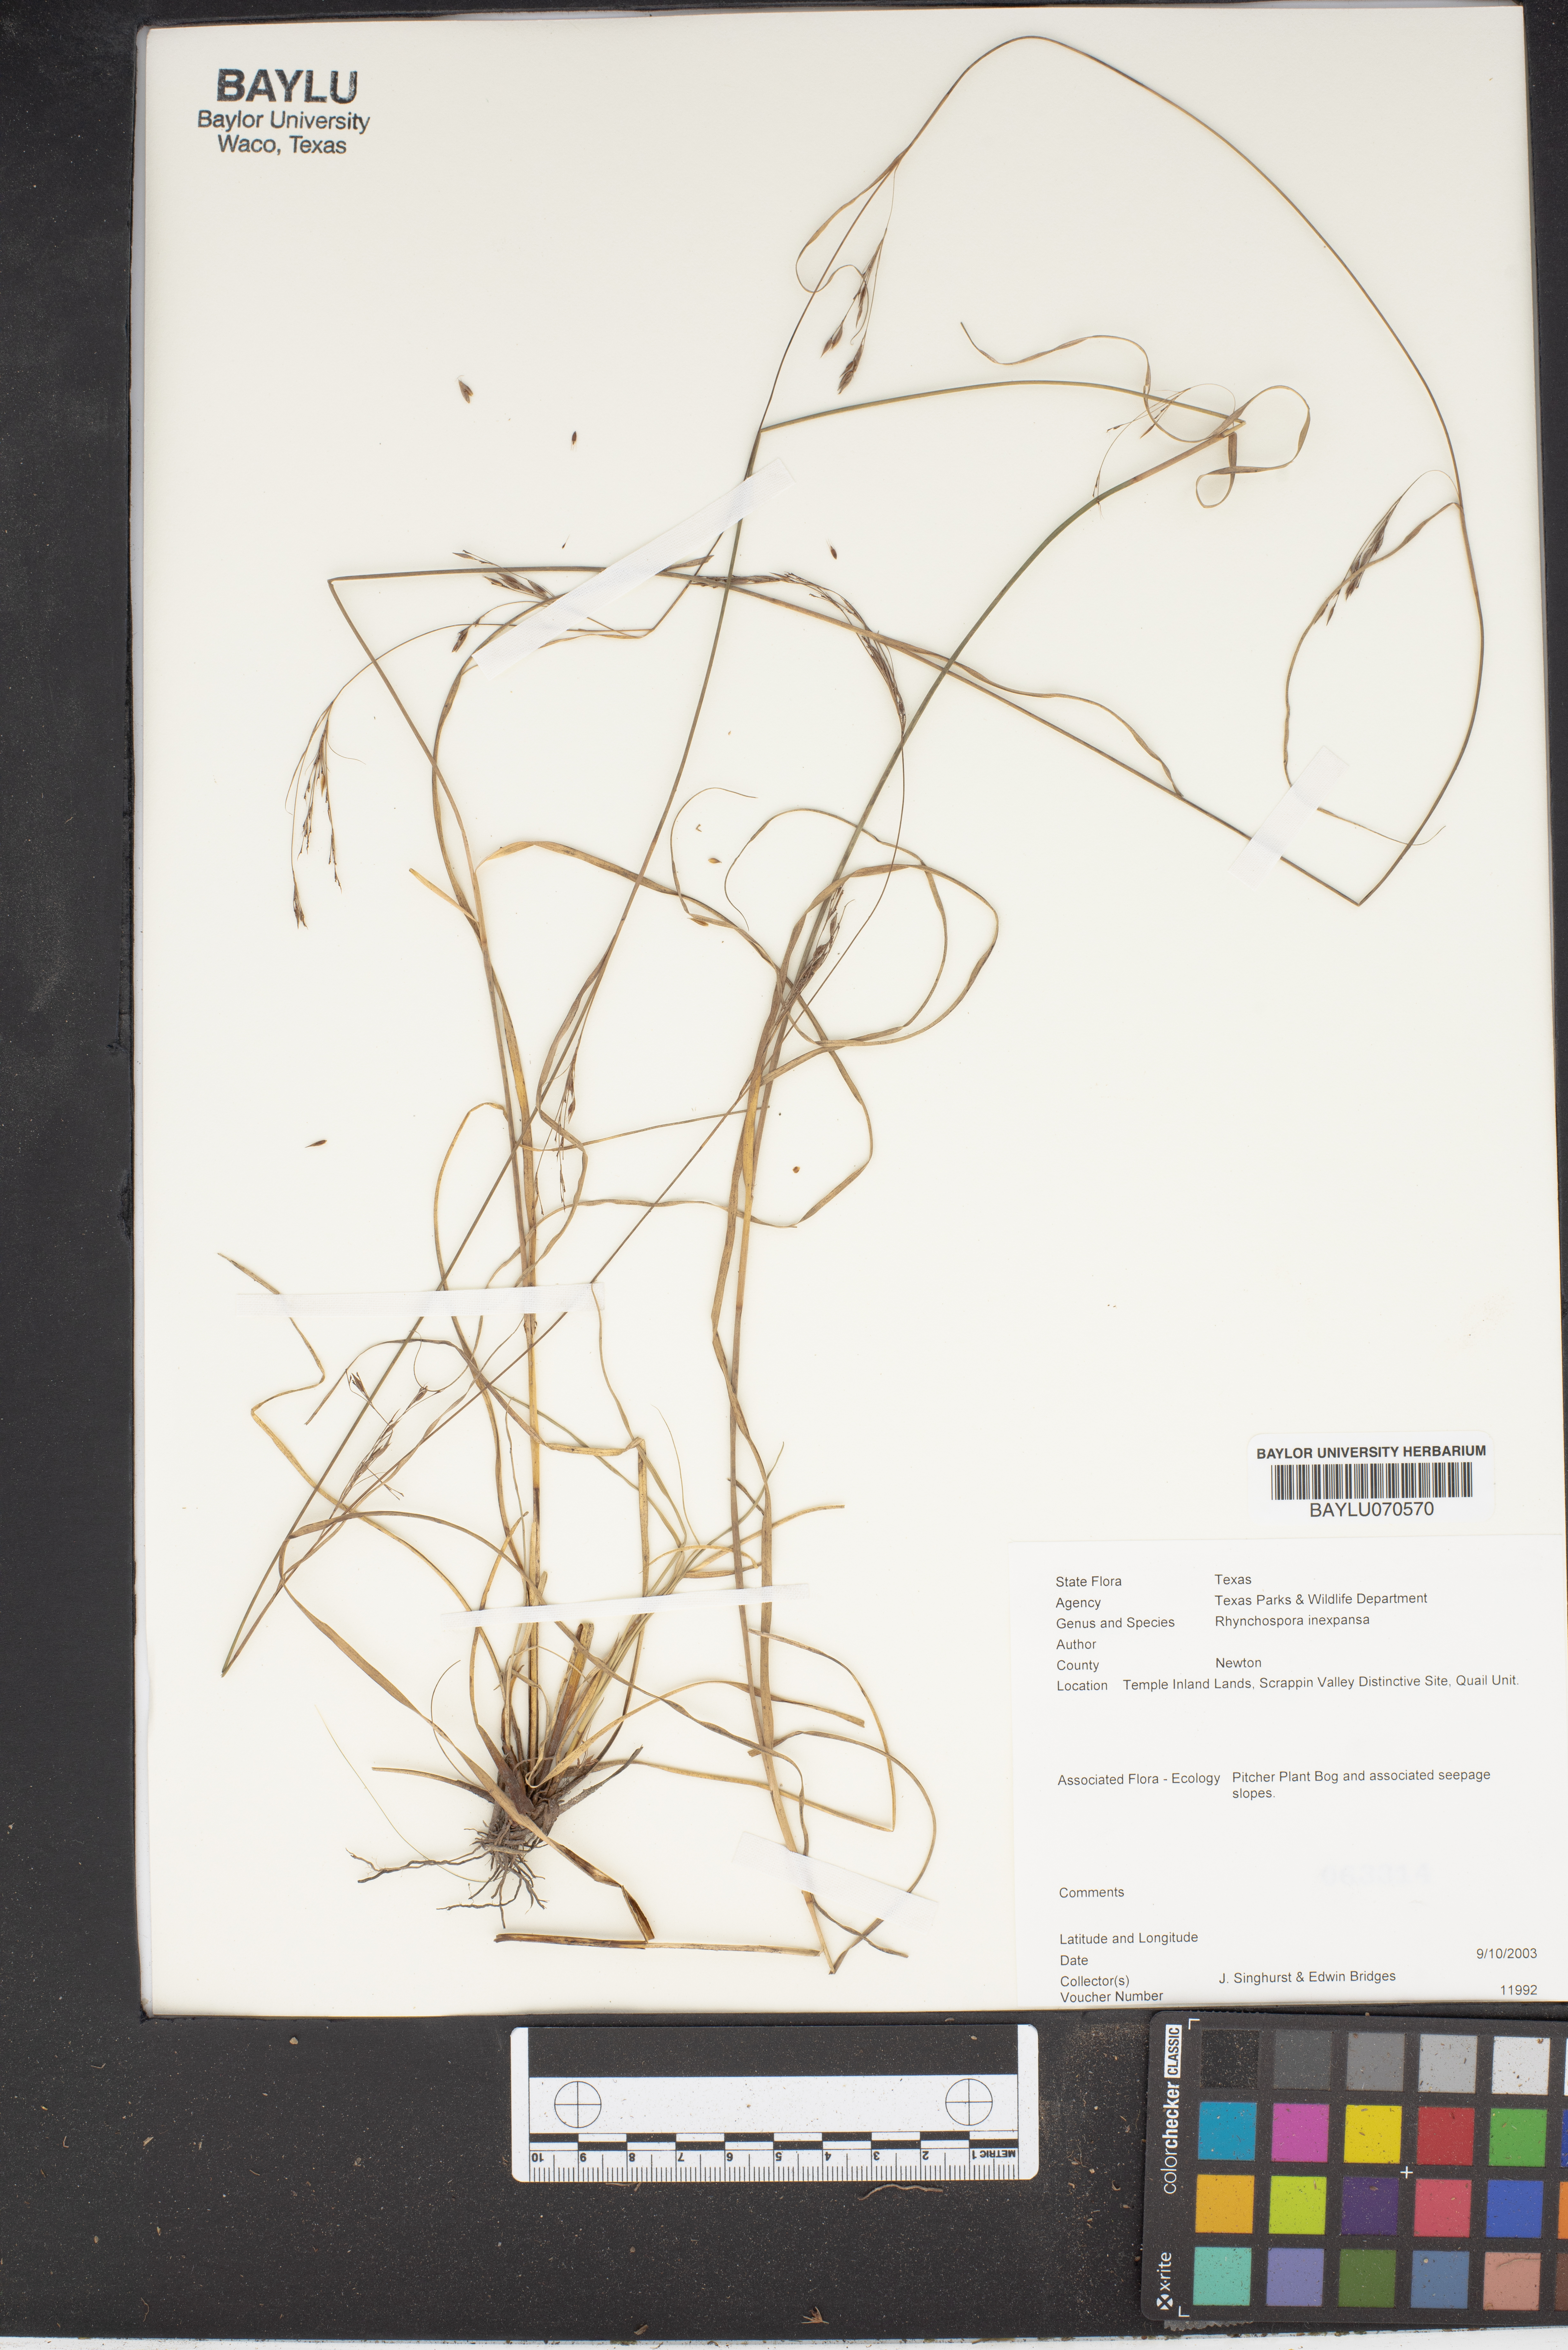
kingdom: Plantae
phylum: Tracheophyta
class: Liliopsida
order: Poales
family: Cyperaceae
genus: Rhynchospora
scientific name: Rhynchospora inexpansa
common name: Nodding beaksedge
